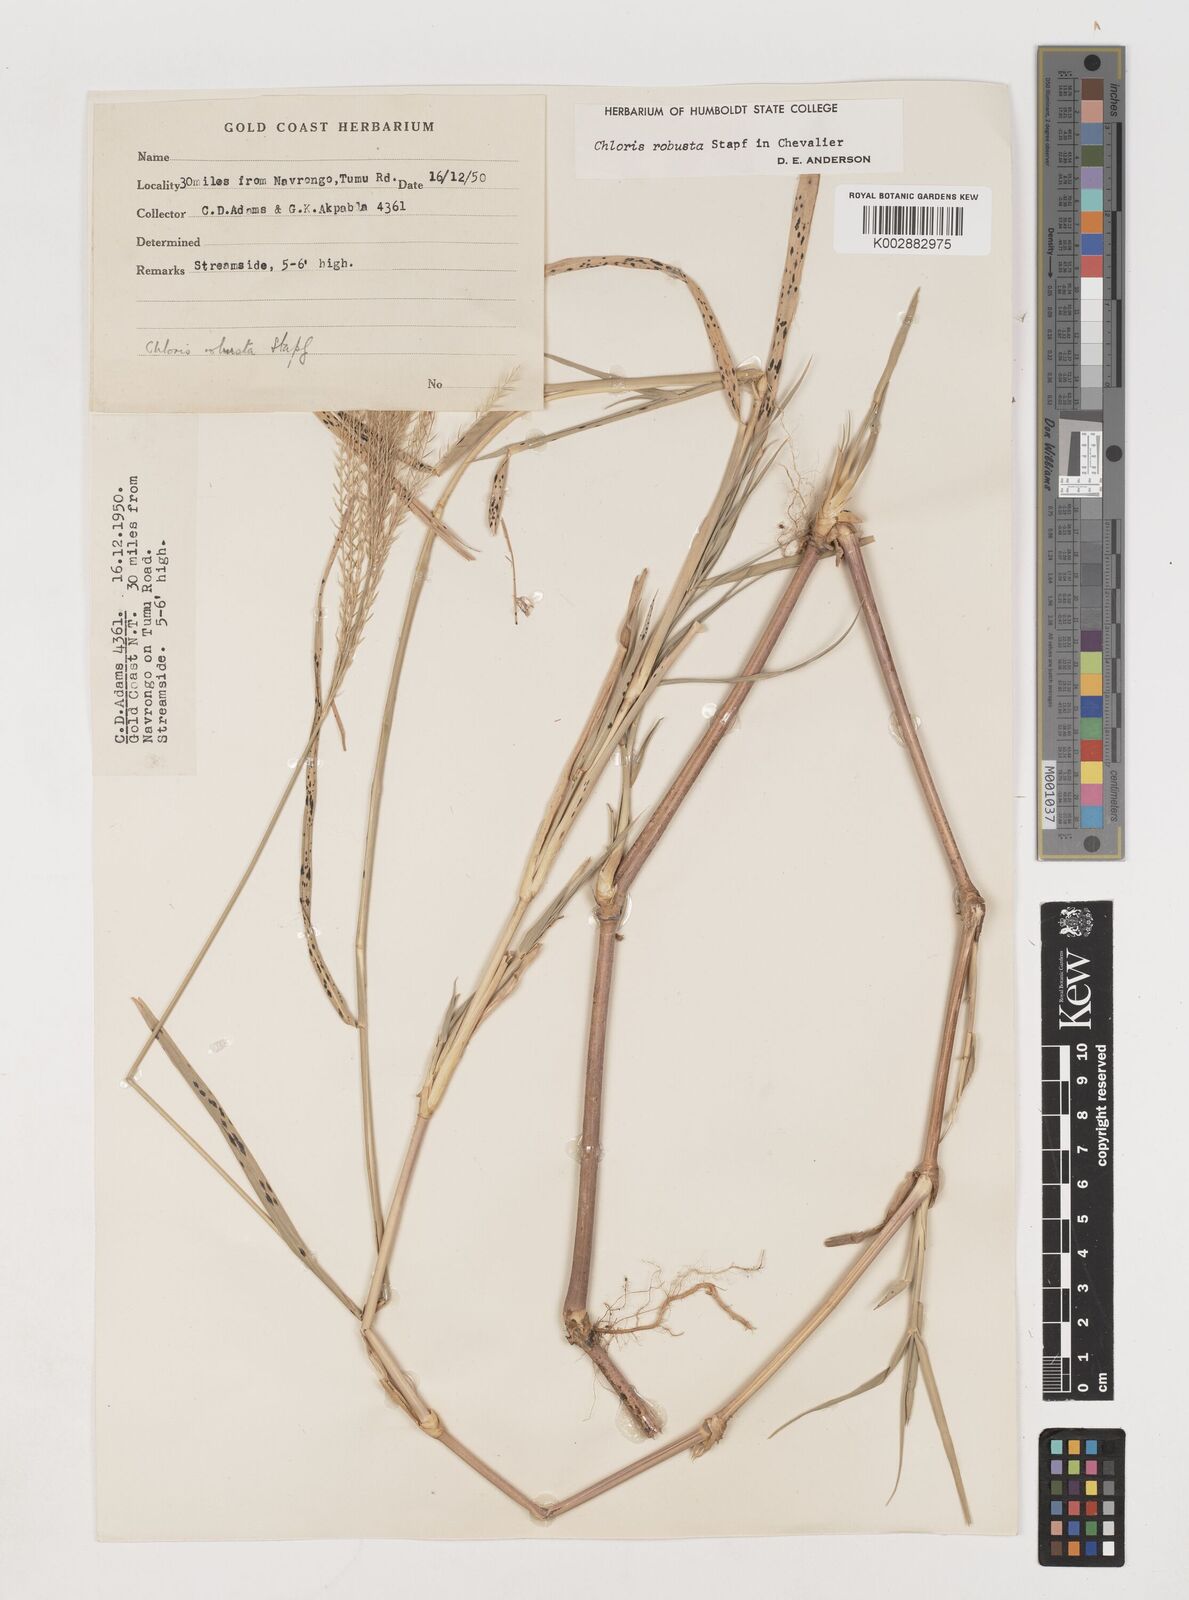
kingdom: Plantae
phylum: Tracheophyta
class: Liliopsida
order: Poales
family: Poaceae
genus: Chloris
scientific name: Chloris robusta
